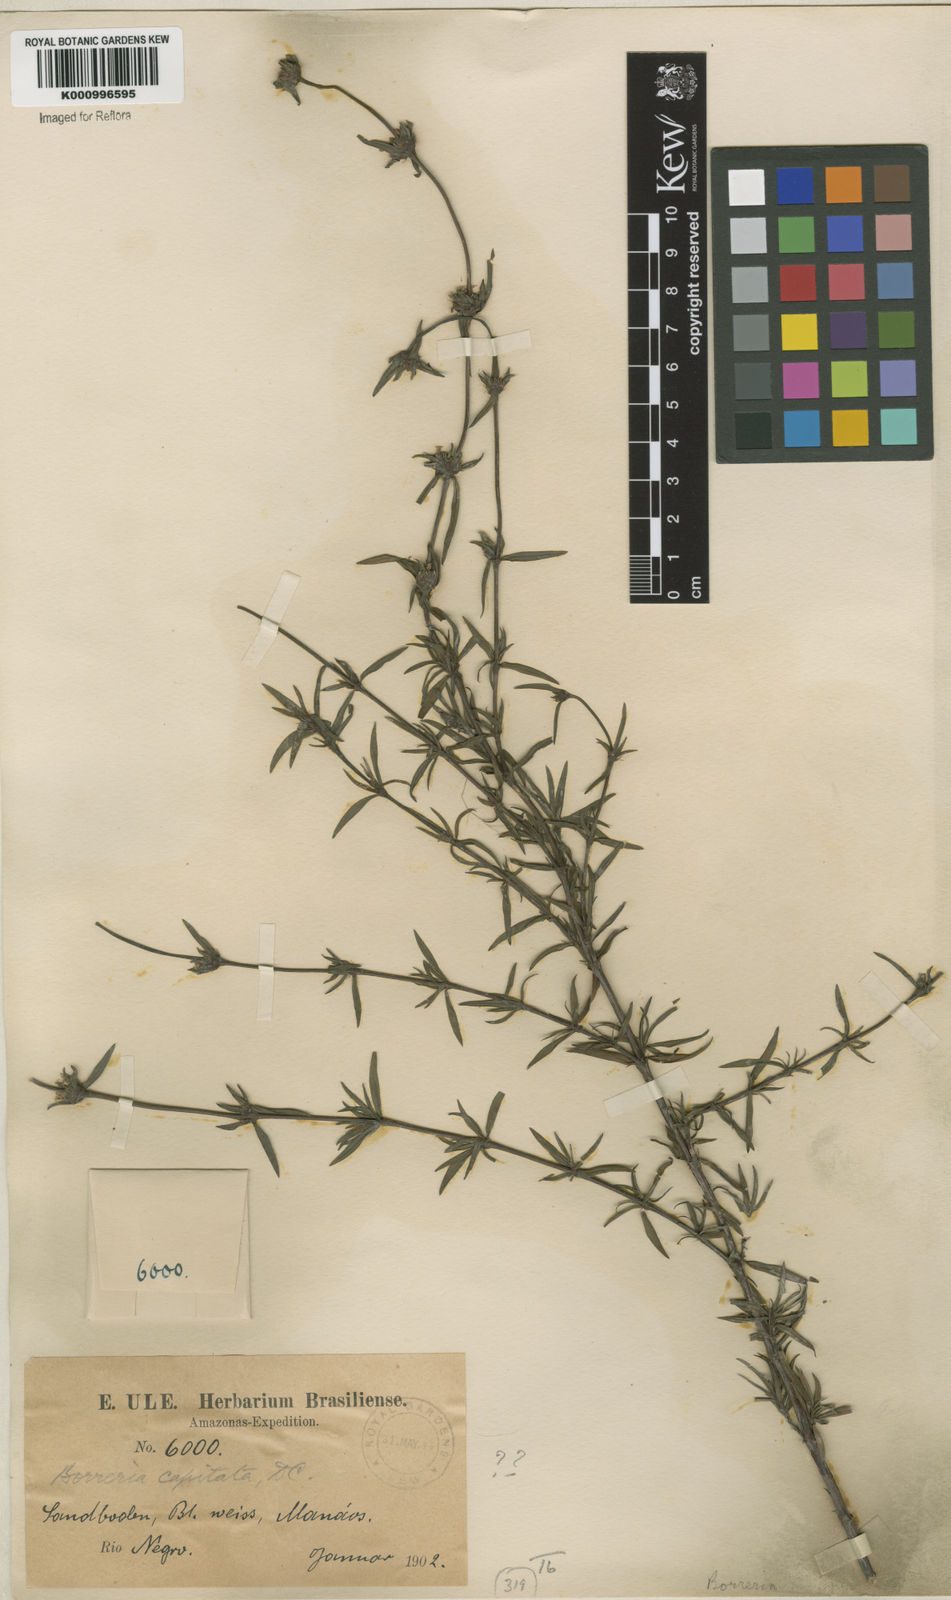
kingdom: Plantae
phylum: Tracheophyta
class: Magnoliopsida
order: Gentianales
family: Rubiaceae
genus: Spermacoce
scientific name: Spermacoce capitata
